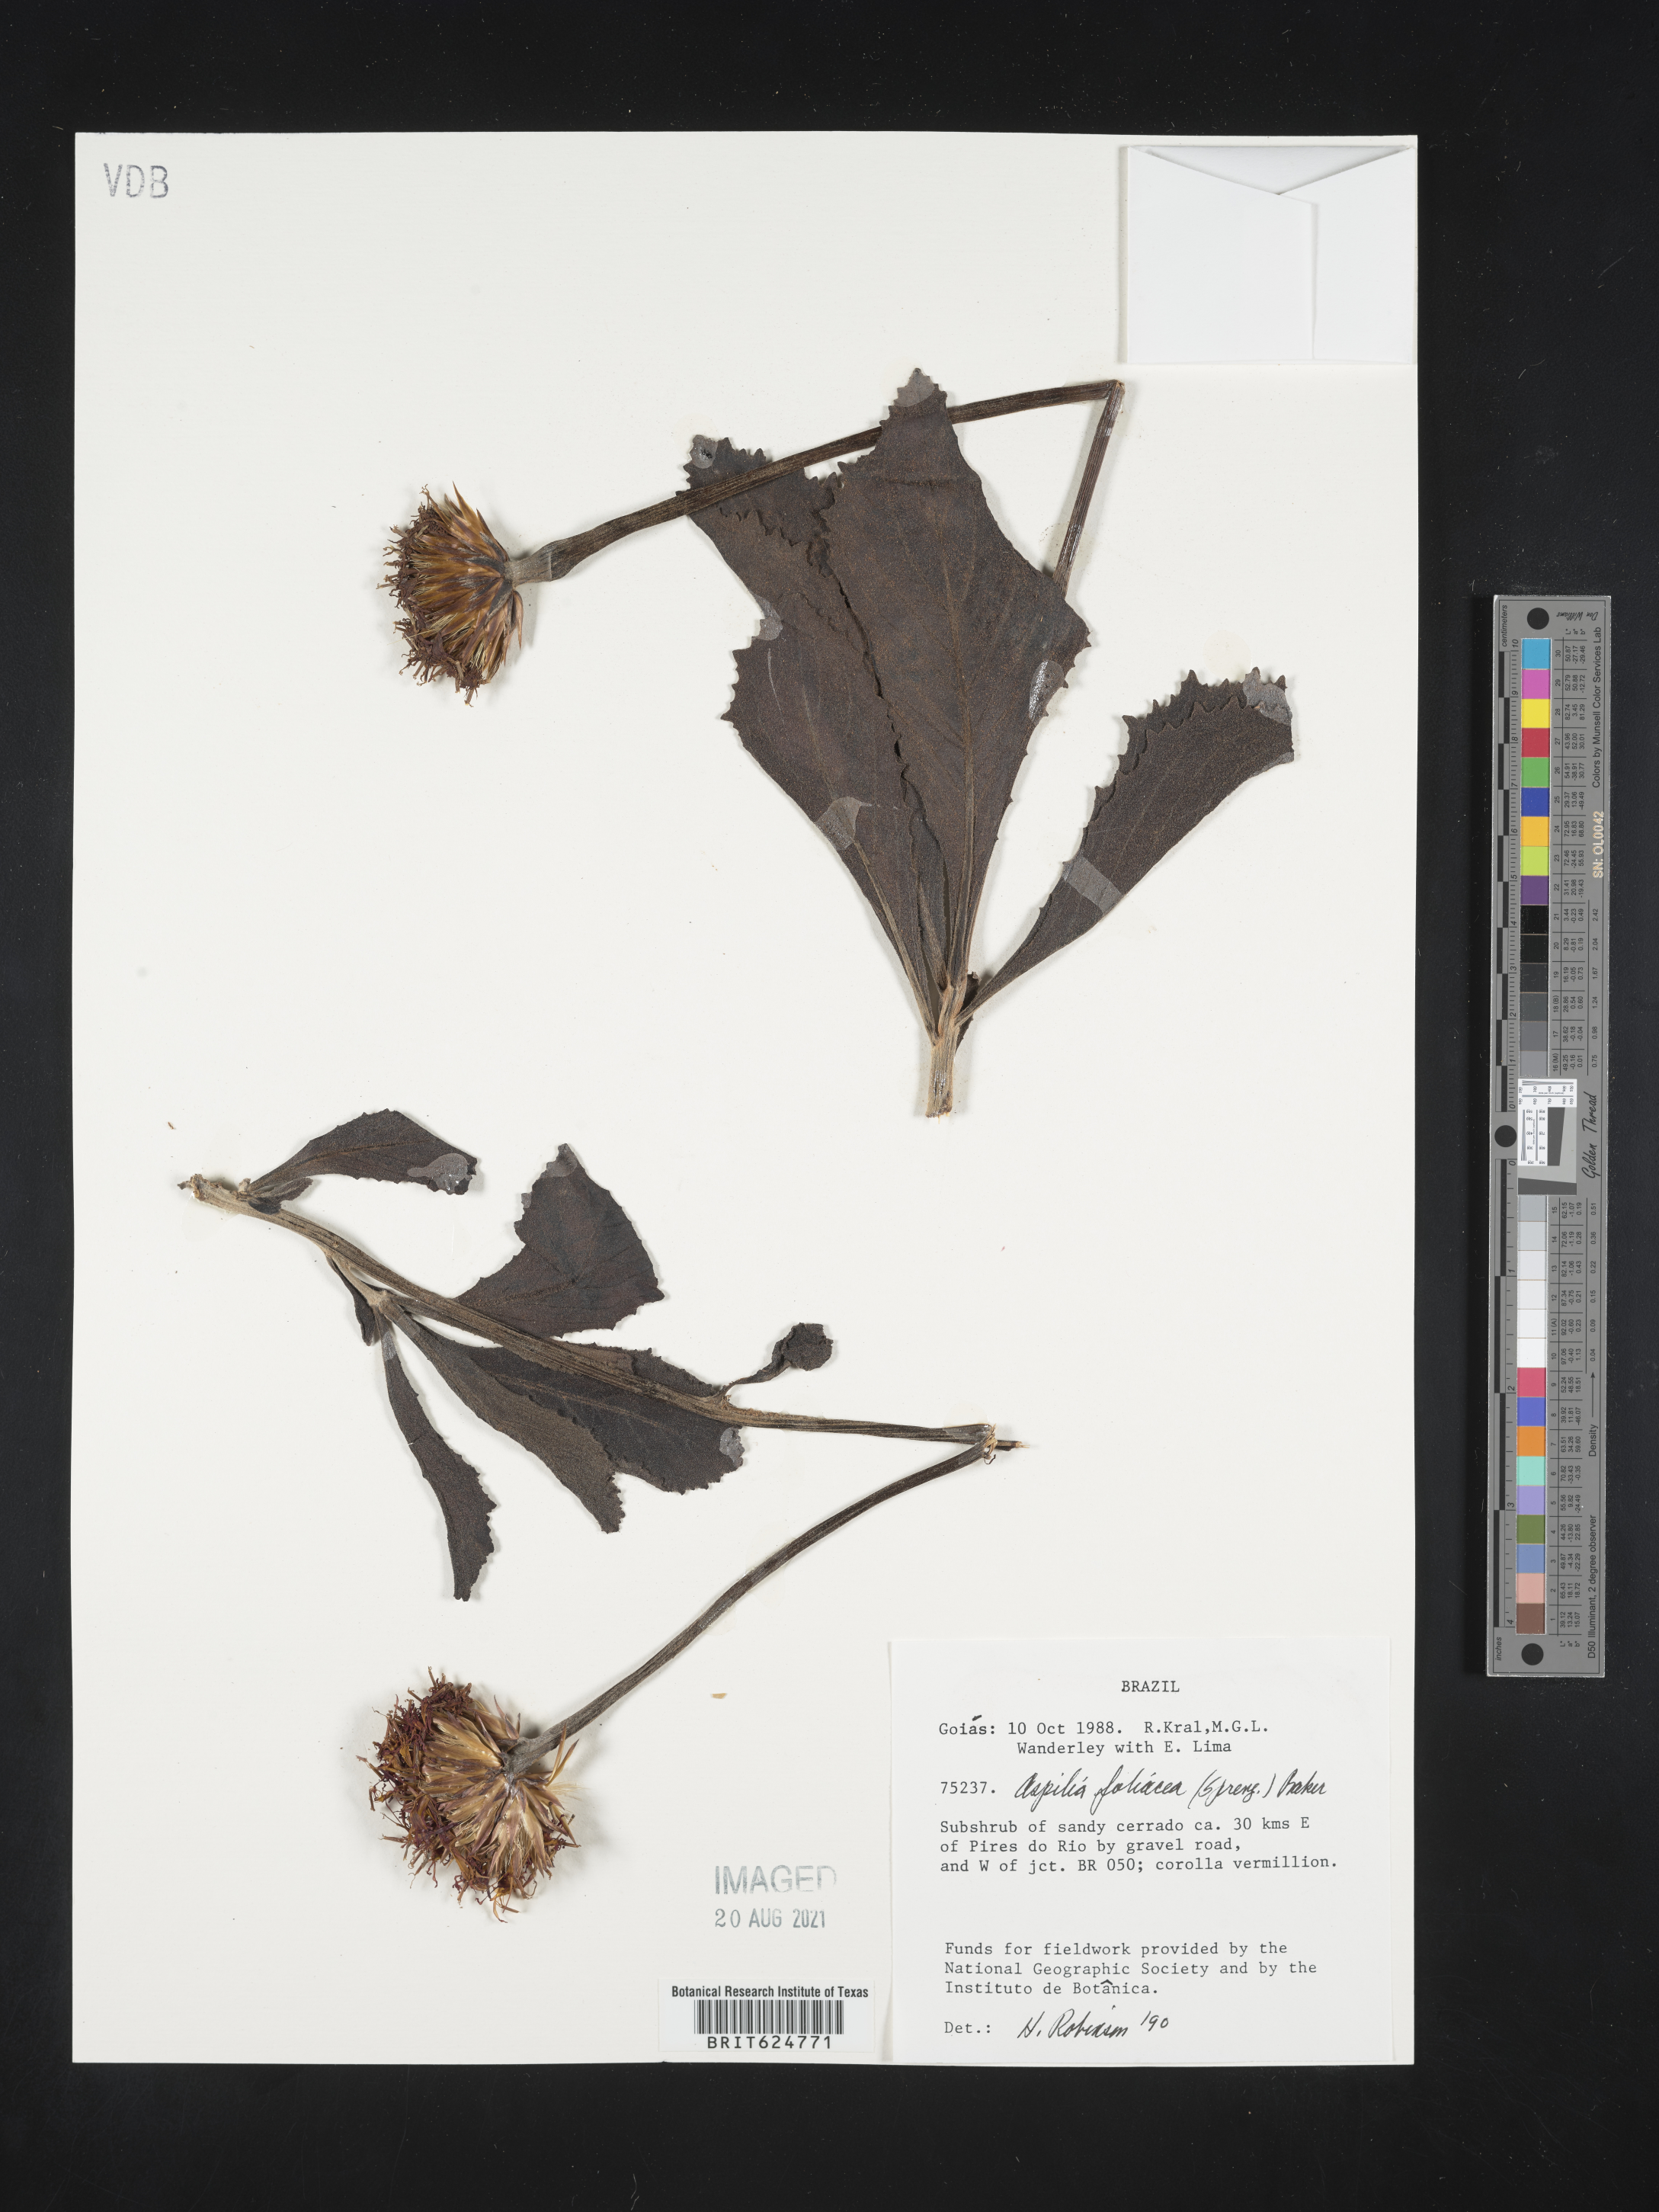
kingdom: Plantae
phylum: Tracheophyta
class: Magnoliopsida
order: Asterales
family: Asteraceae
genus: Wedelia
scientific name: Wedelia foliacea
